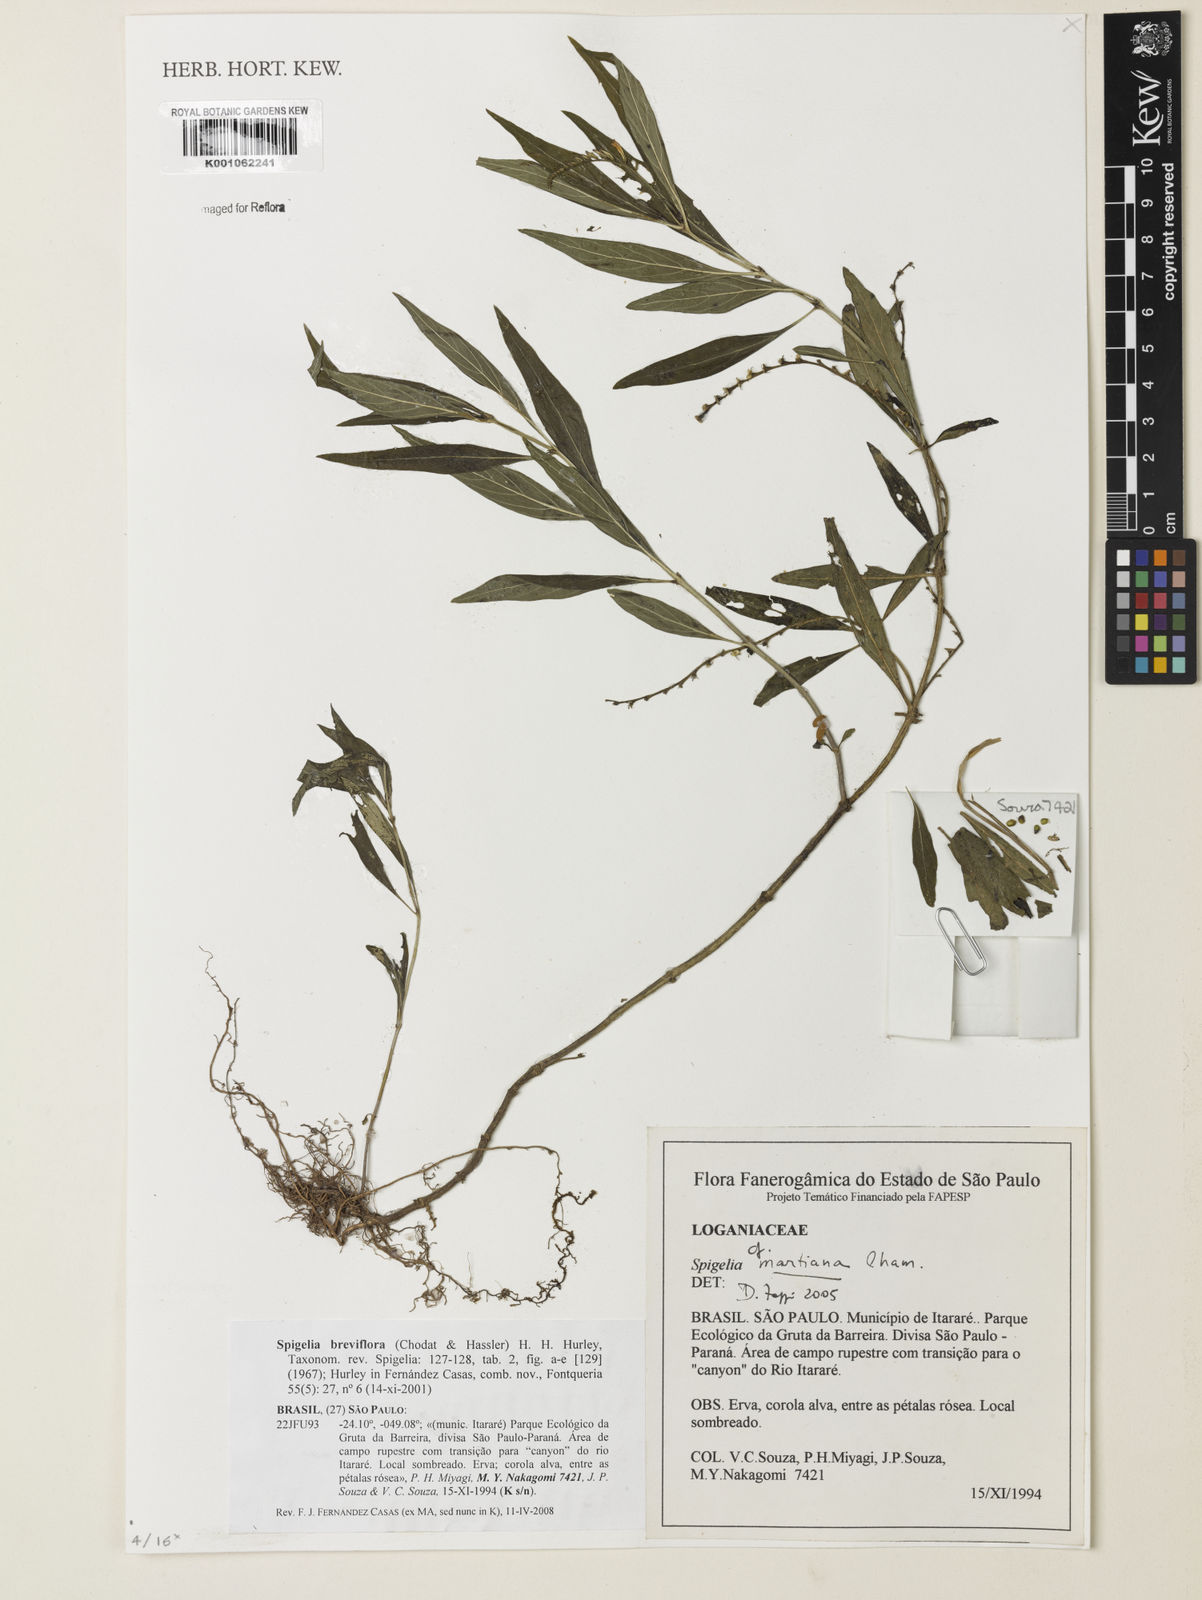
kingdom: Plantae
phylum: Tracheophyta
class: Magnoliopsida
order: Gentianales
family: Loganiaceae
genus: Spigelia
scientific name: Spigelia breviflora
